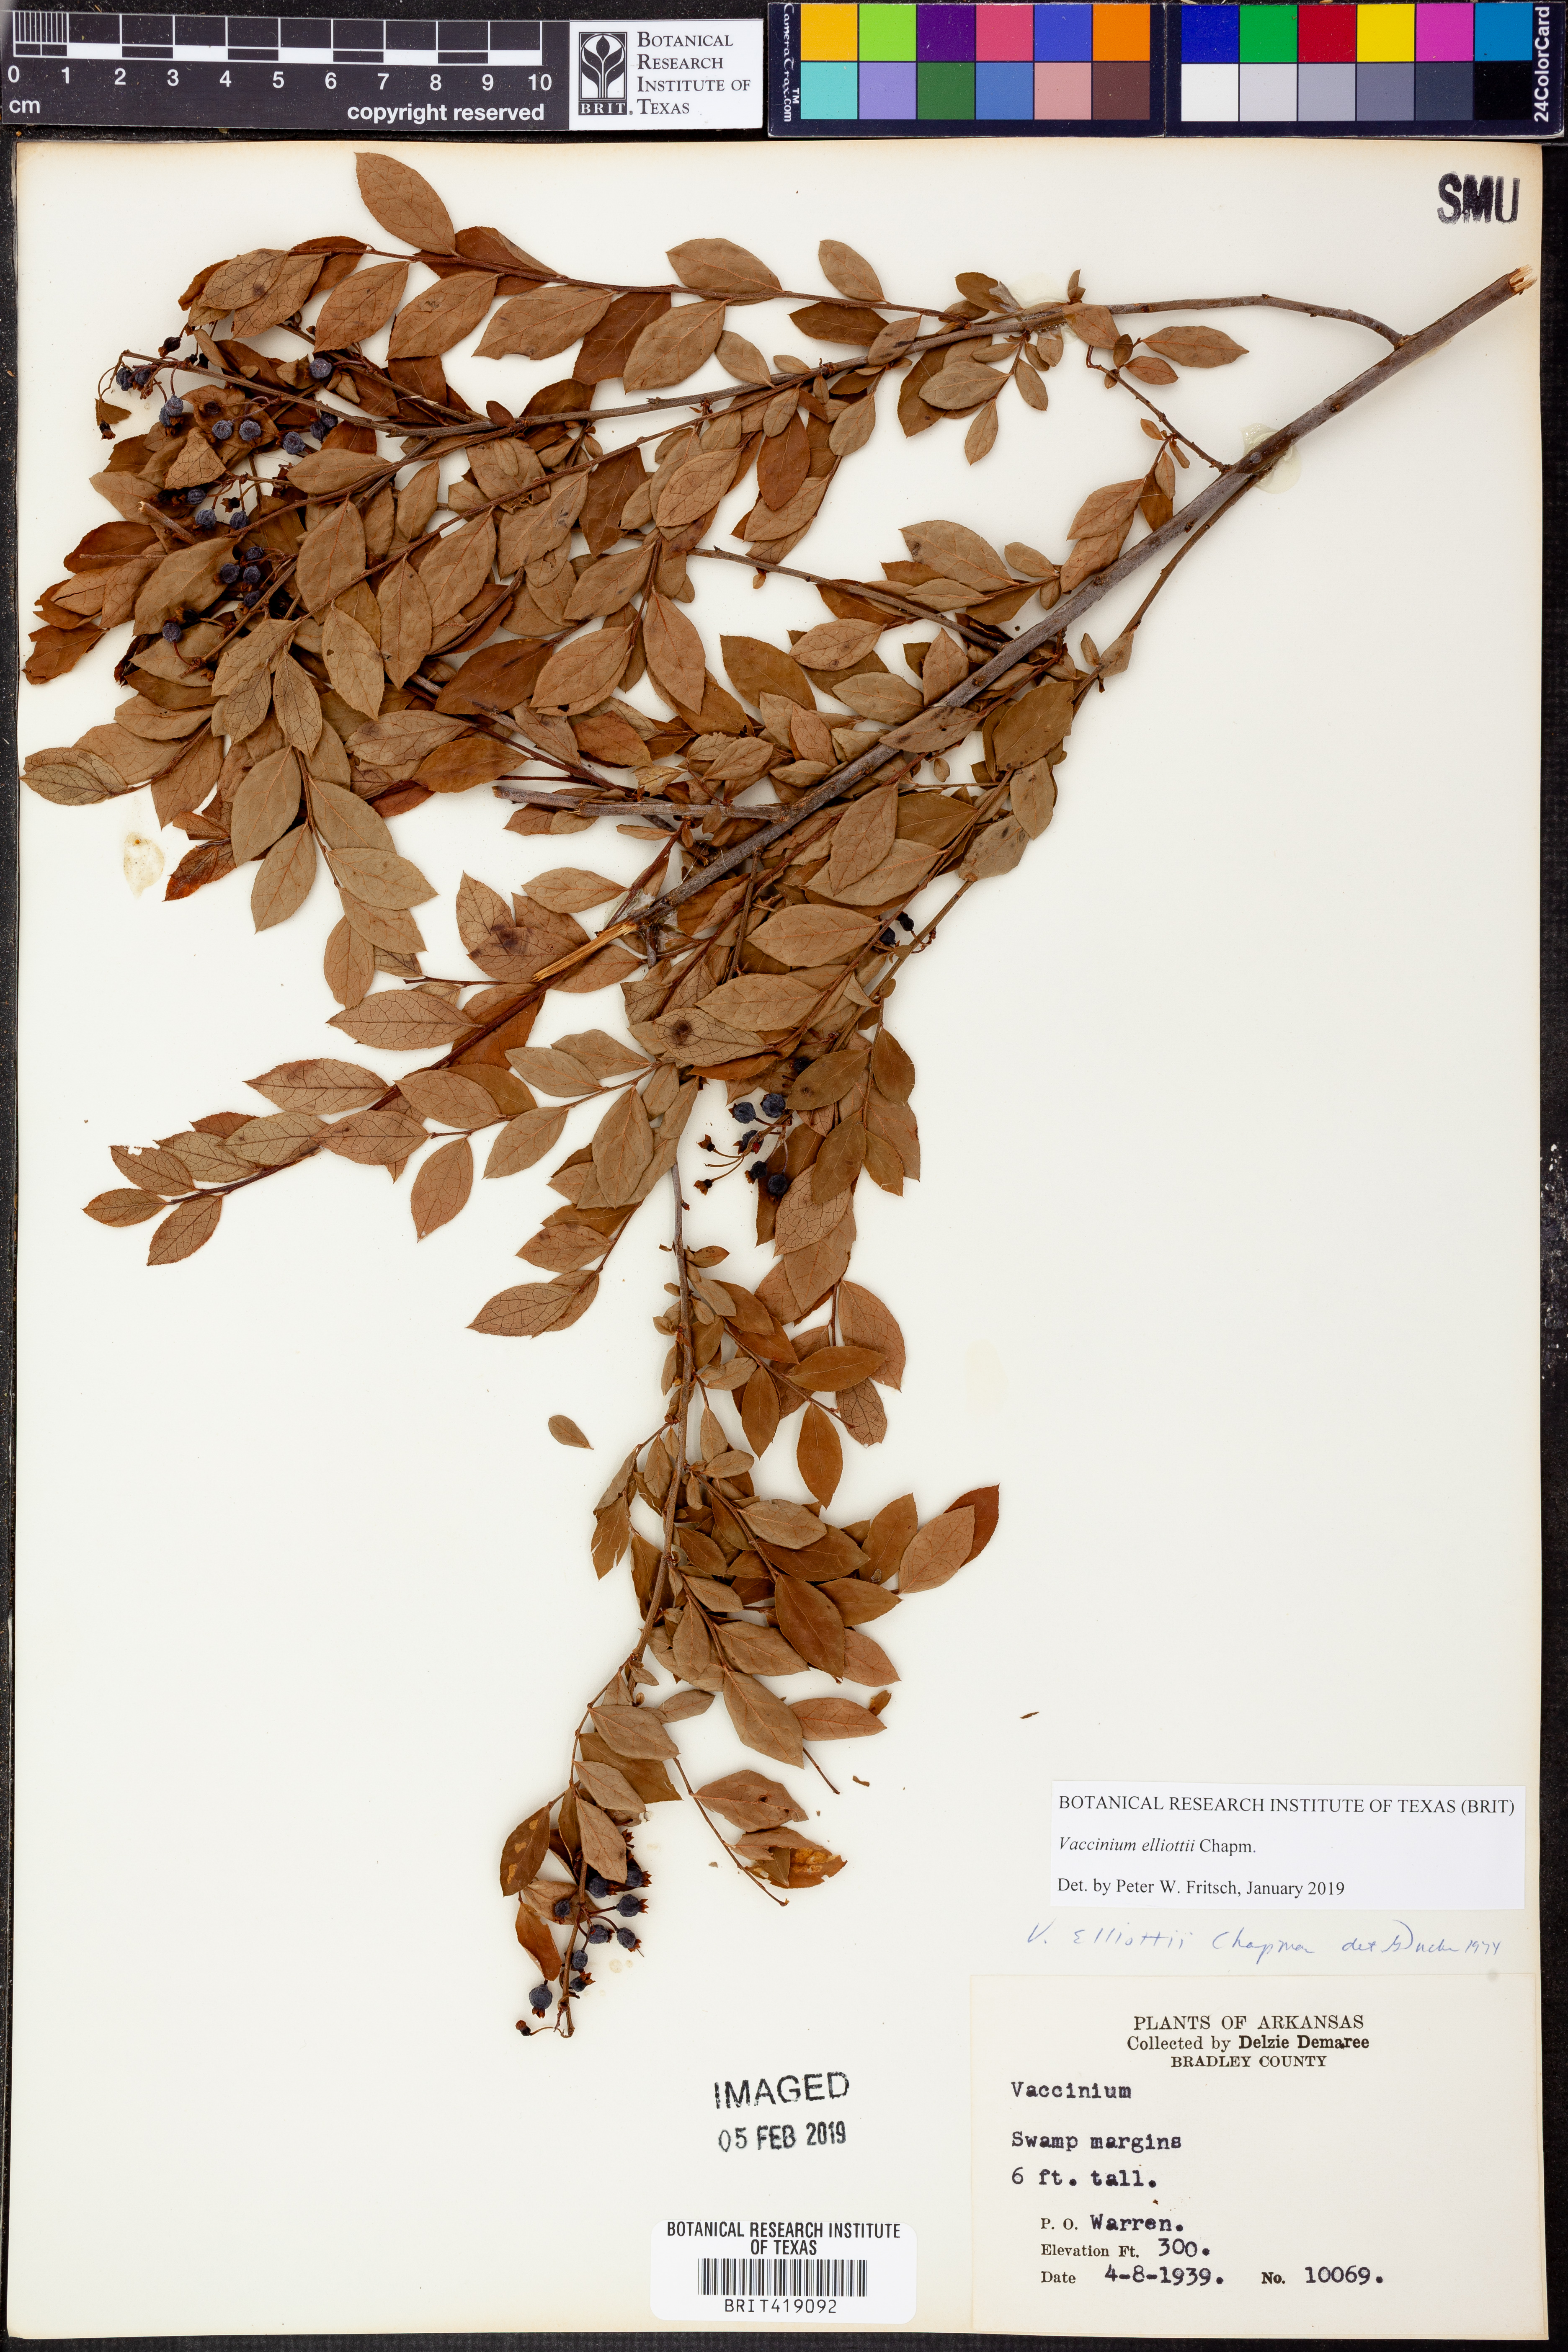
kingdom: Plantae
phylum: Tracheophyta
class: Magnoliopsida
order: Ericales
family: Ericaceae
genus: Vaccinium
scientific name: Vaccinium corymbosum
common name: Blueberry
